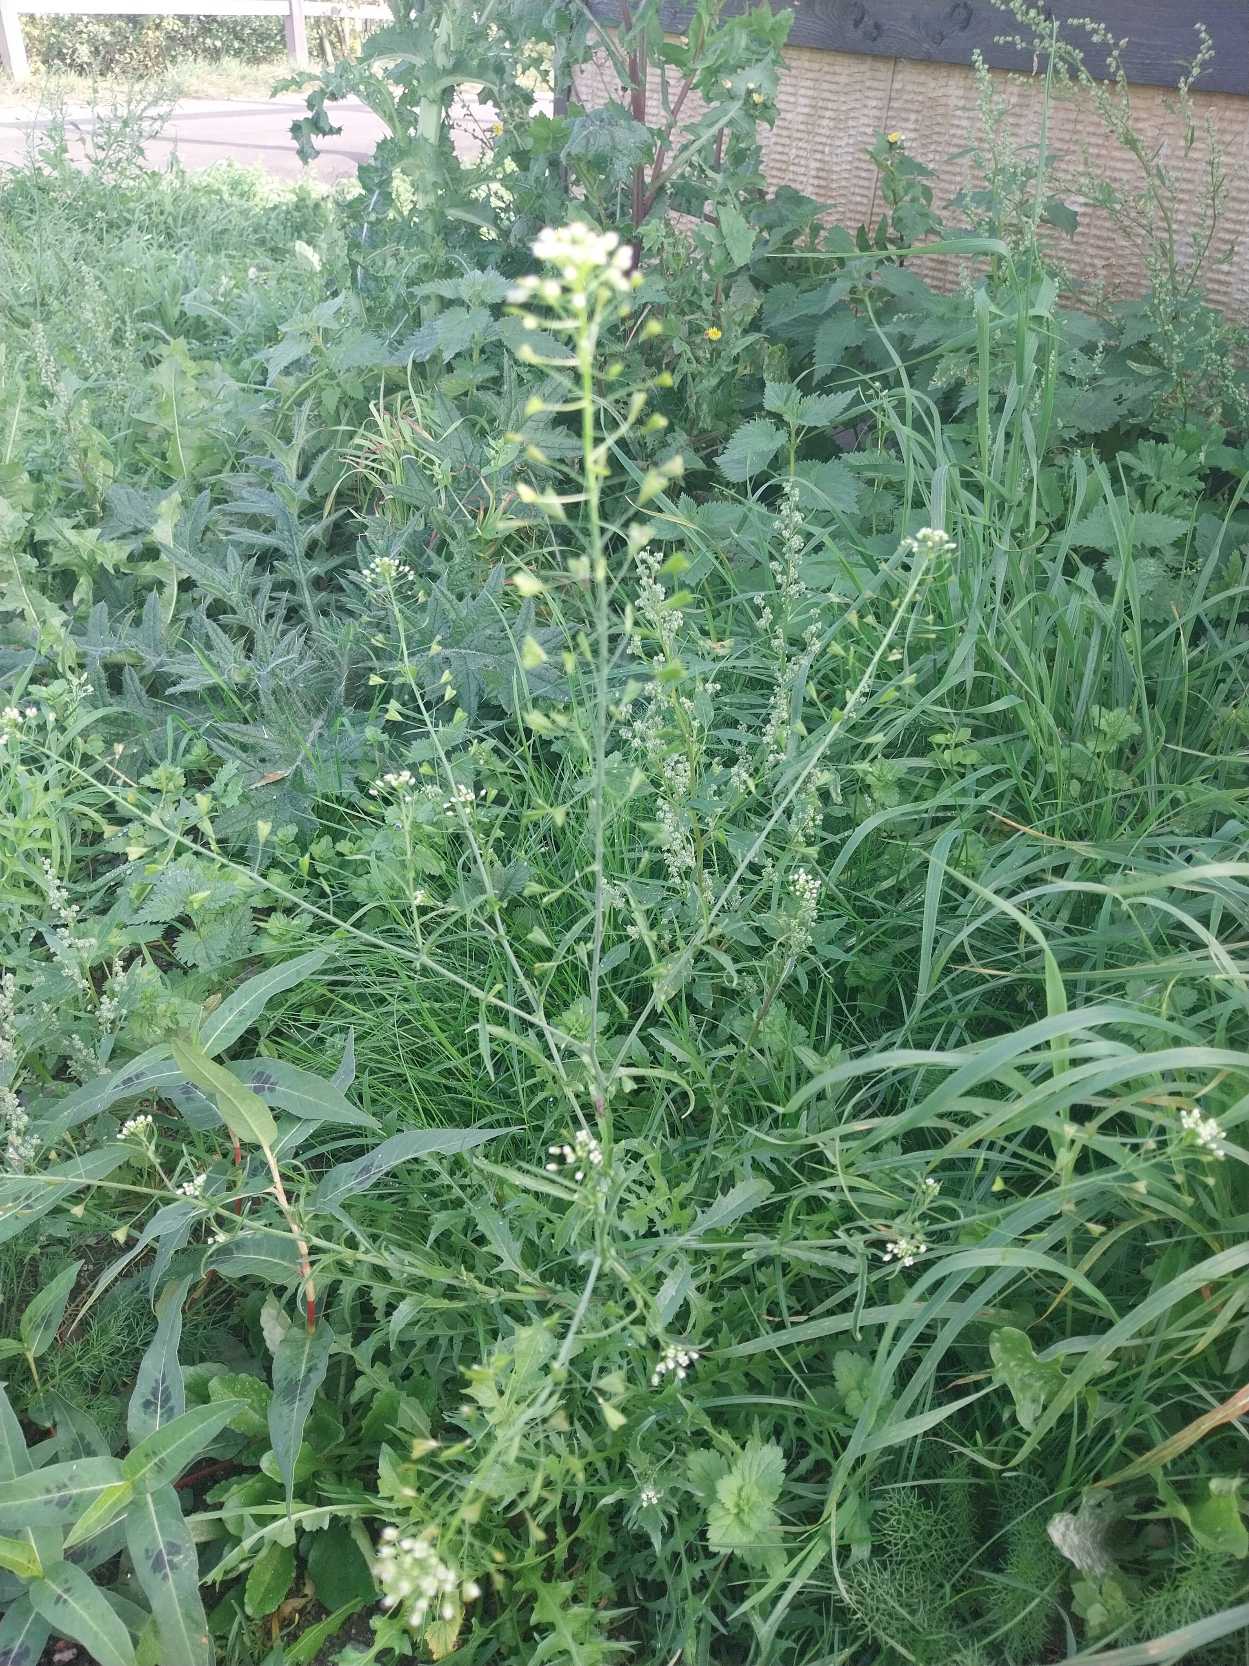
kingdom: Plantae
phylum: Tracheophyta
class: Magnoliopsida
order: Brassicales
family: Brassicaceae
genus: Capsella
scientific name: Capsella bursa-pastoris
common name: Hyrdetaske
